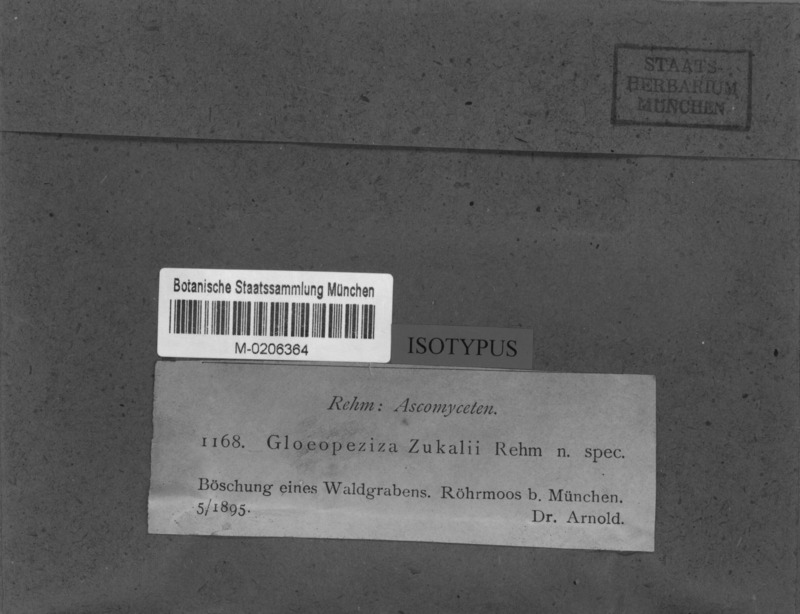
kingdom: Fungi
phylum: Ascomycota
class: Leotiomycetes
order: Helotiales
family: Helotiaceae
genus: Gloeopeziza
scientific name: Gloeopeziza zukalii
